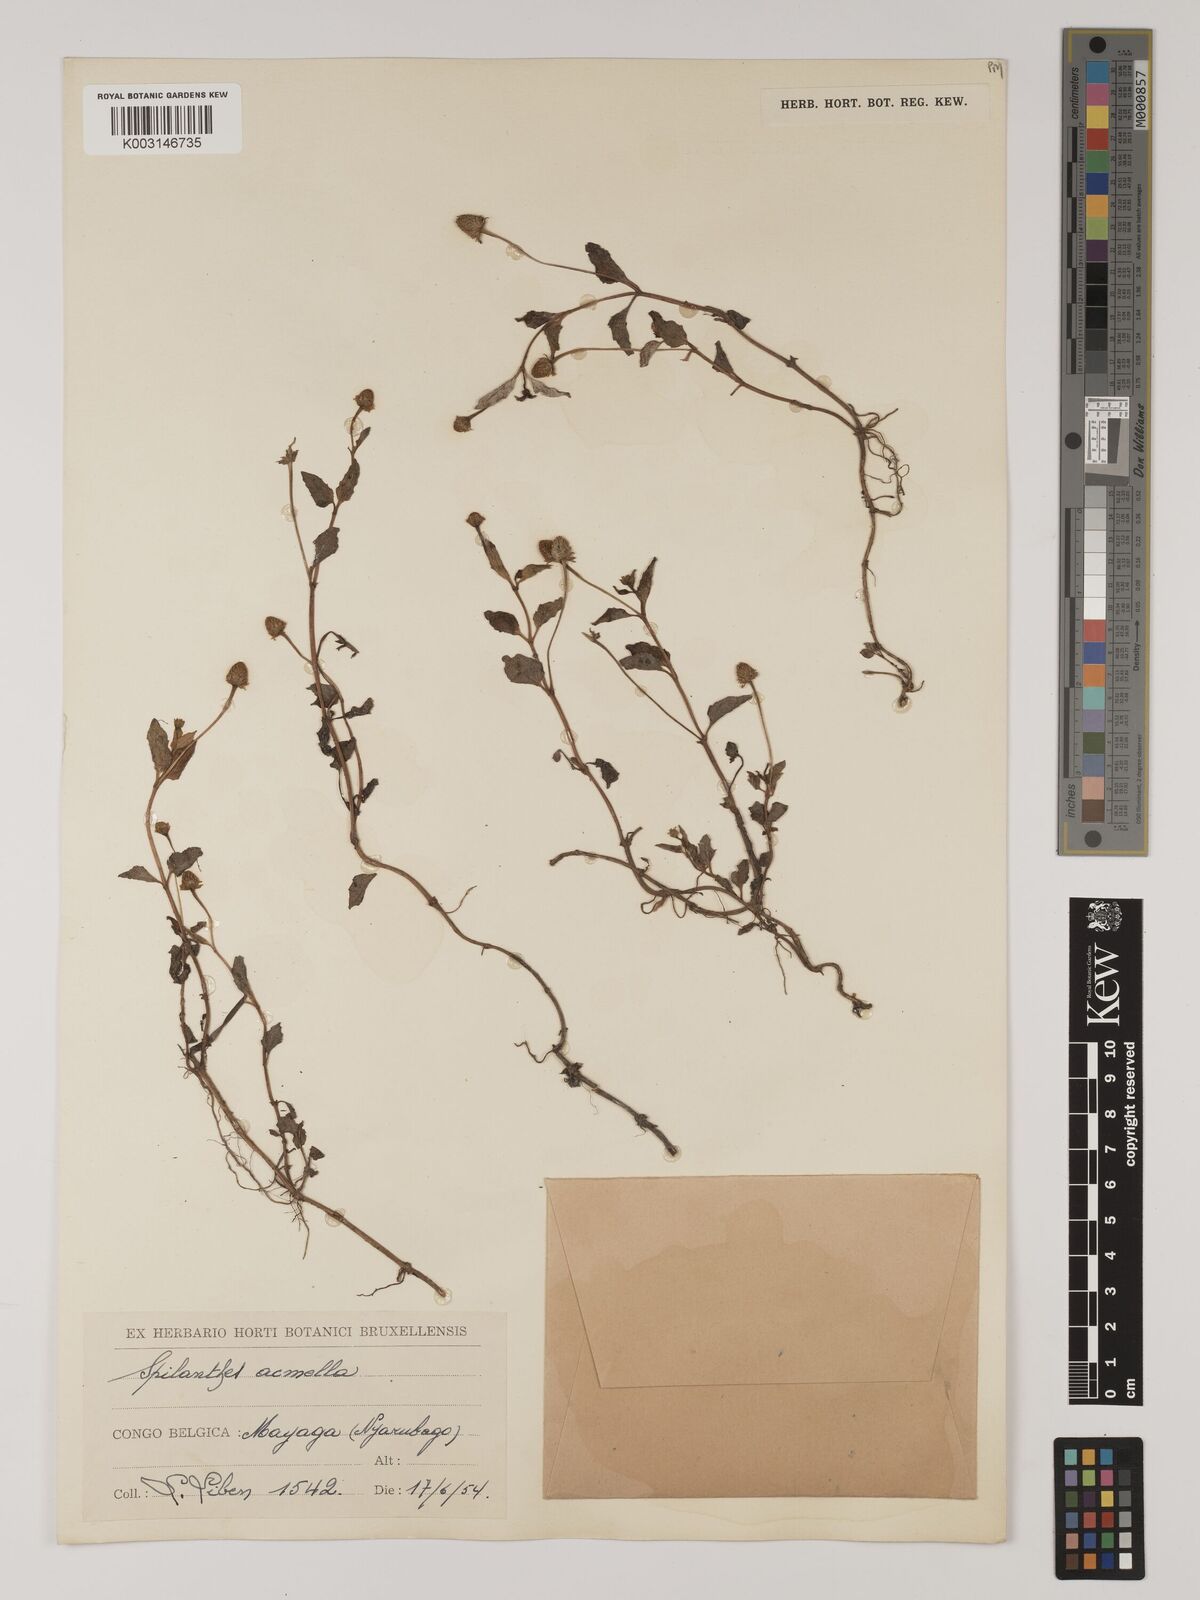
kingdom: Plantae
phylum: Tracheophyta
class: Magnoliopsida
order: Asterales
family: Asteraceae
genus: Blainvillea
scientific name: Blainvillea acmella
